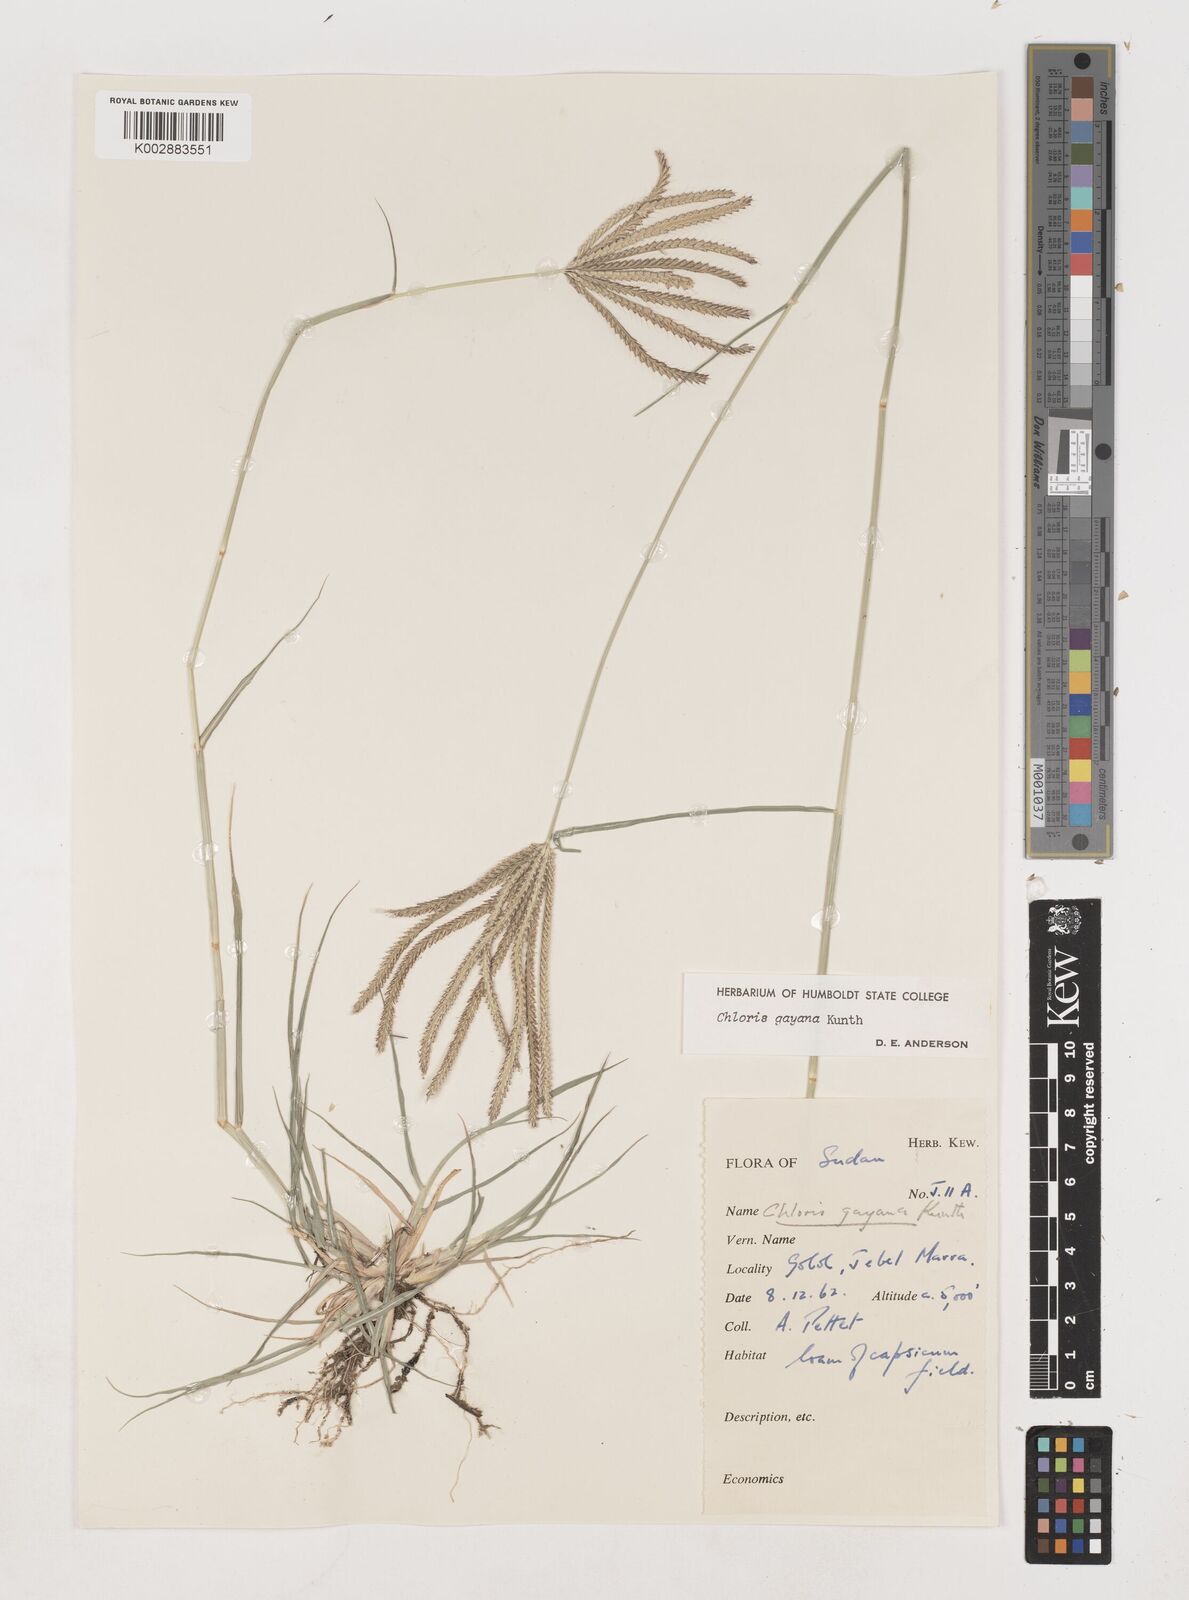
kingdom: Plantae
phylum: Tracheophyta
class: Liliopsida
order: Poales
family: Poaceae
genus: Chloris
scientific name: Chloris gayana
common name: Rhodes grass
